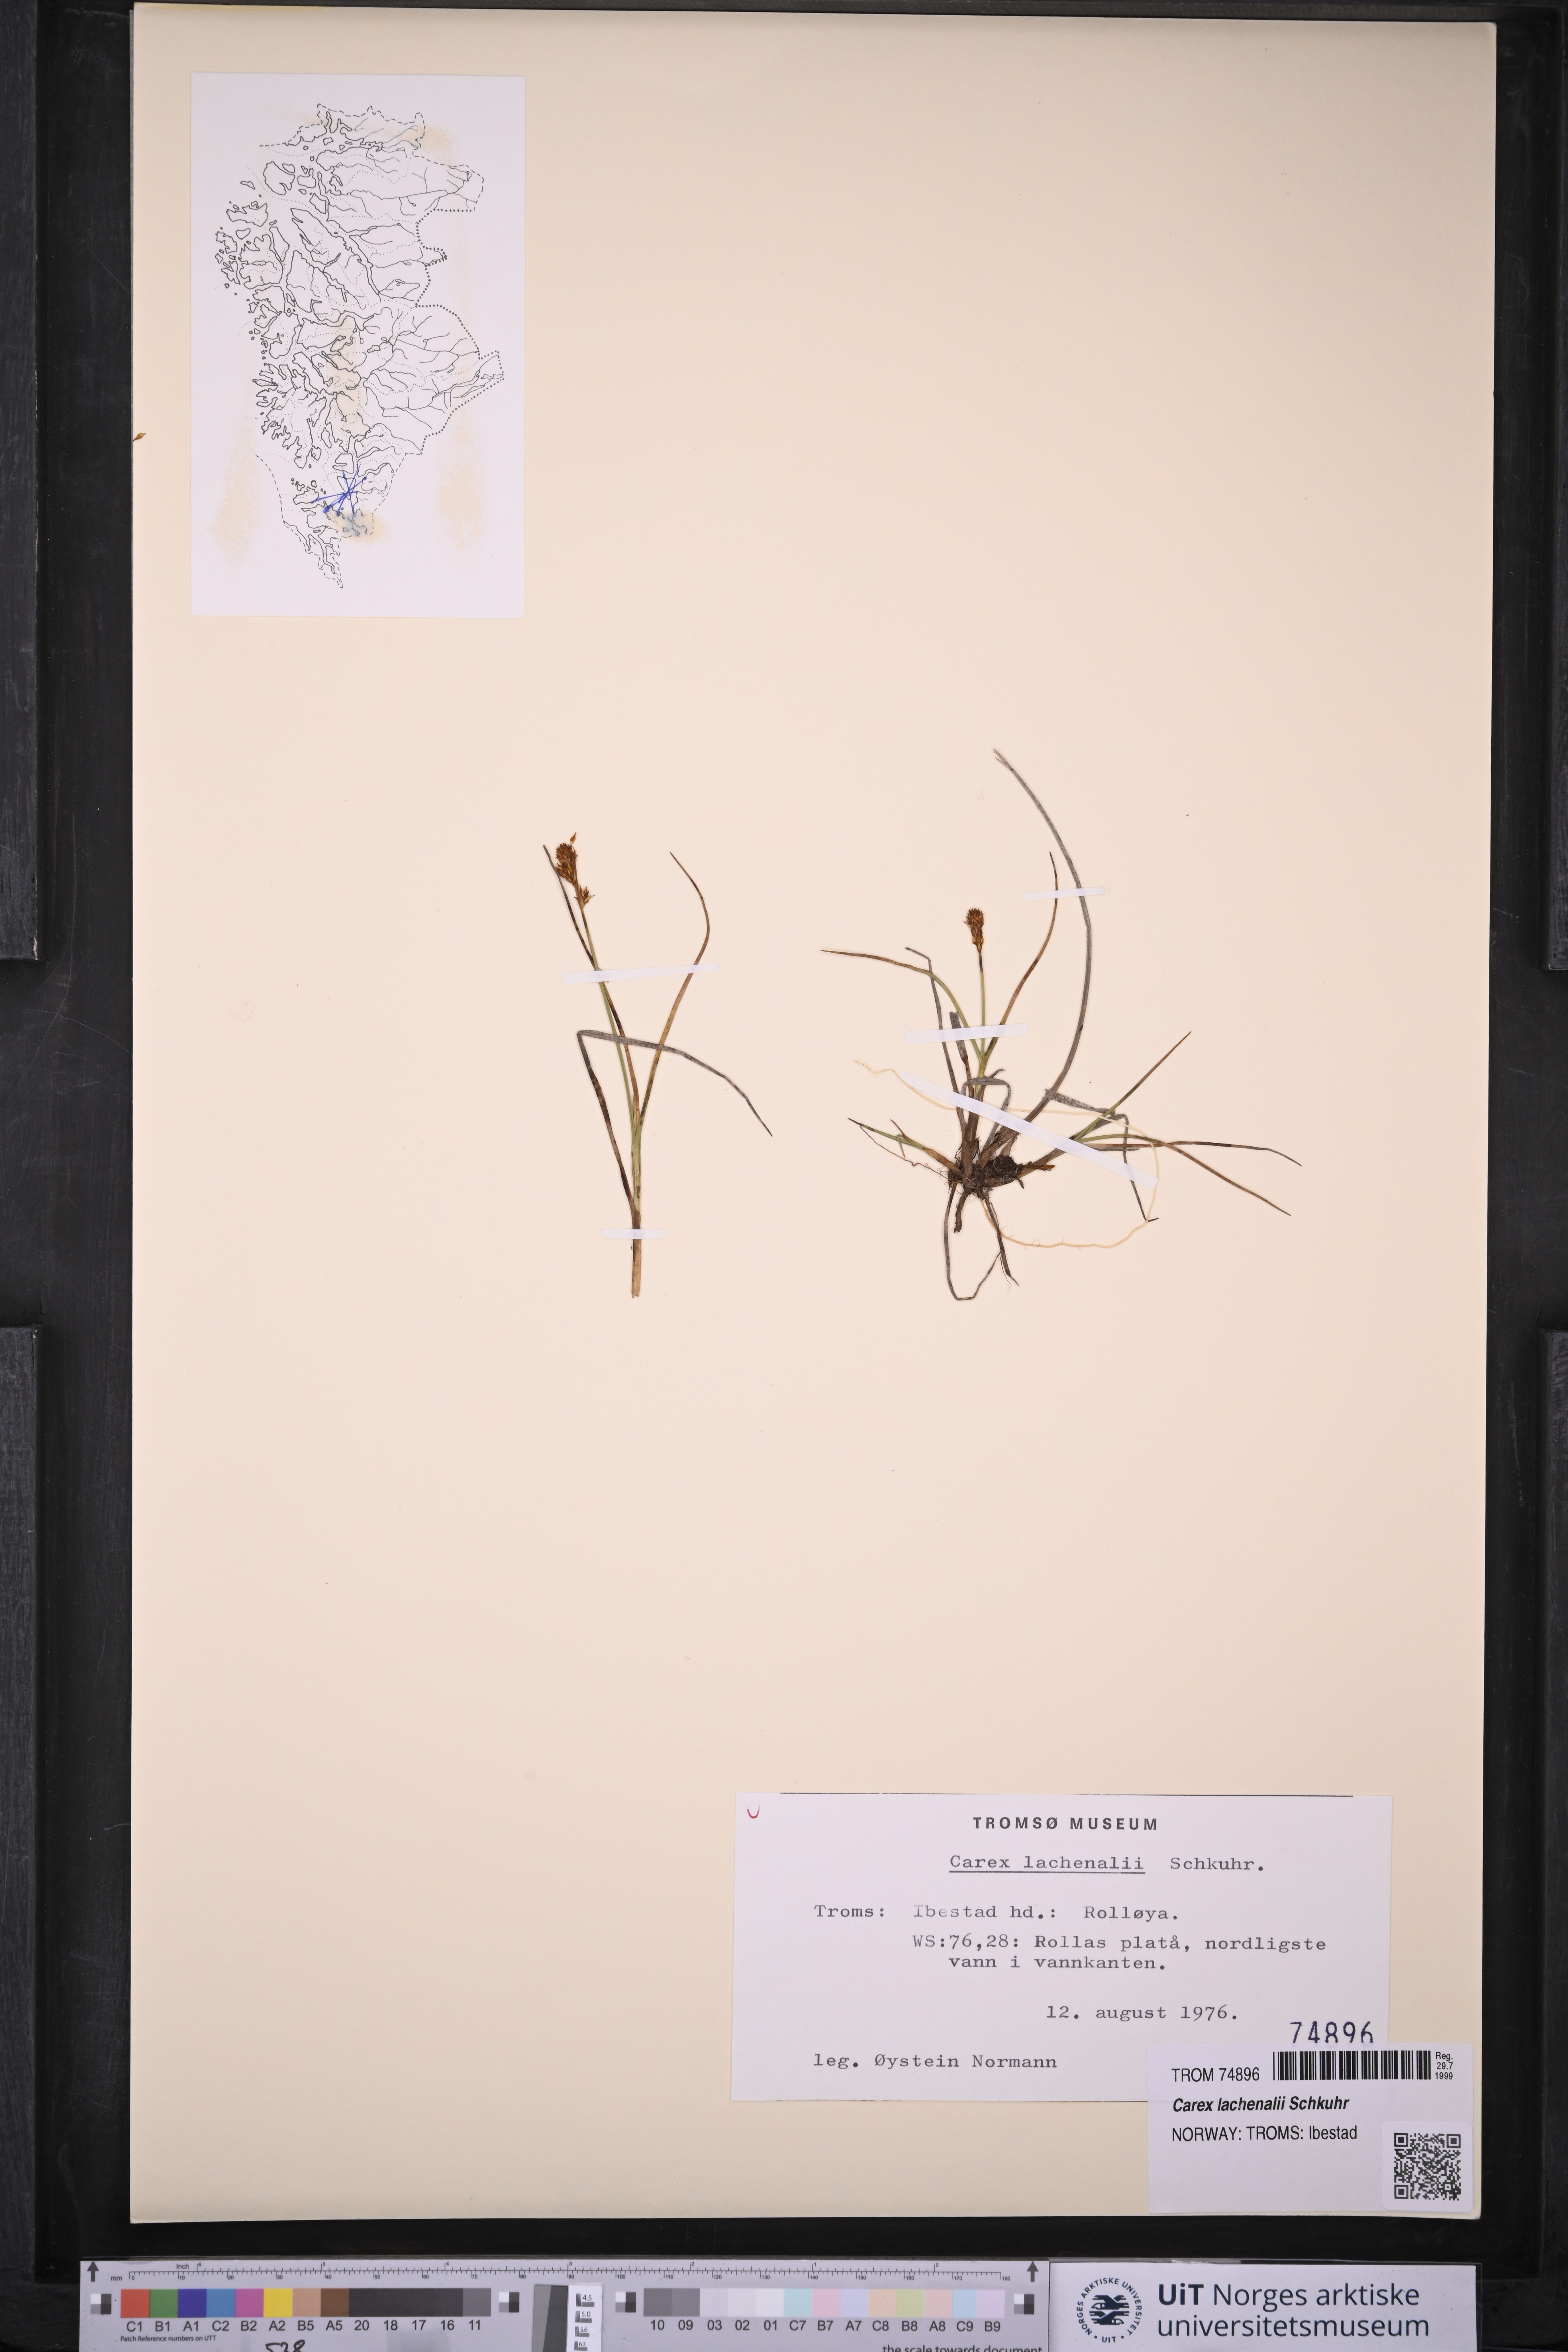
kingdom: Plantae
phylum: Tracheophyta
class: Liliopsida
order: Poales
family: Cyperaceae
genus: Carex
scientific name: Carex lachenalii
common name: Hare's-foot sedge
